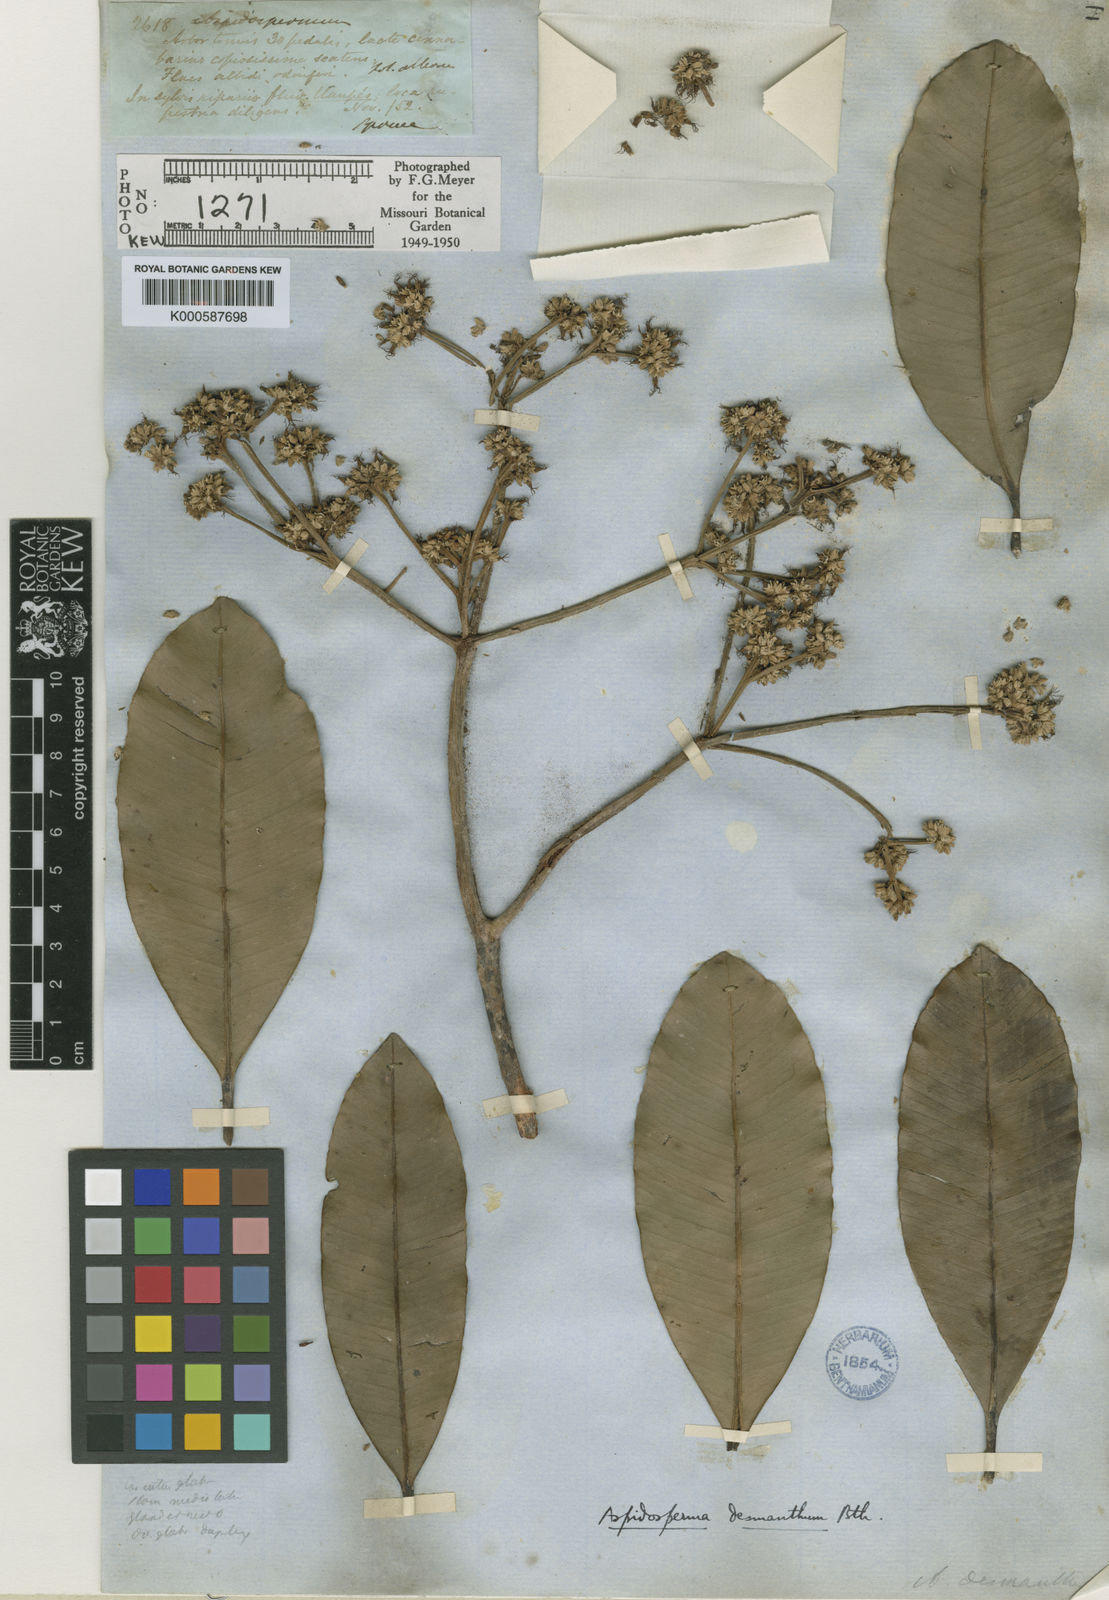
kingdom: Plantae
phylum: Tracheophyta
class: Magnoliopsida
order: Gentianales
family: Apocynaceae
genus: Aspidosperma
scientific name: Aspidosperma album
